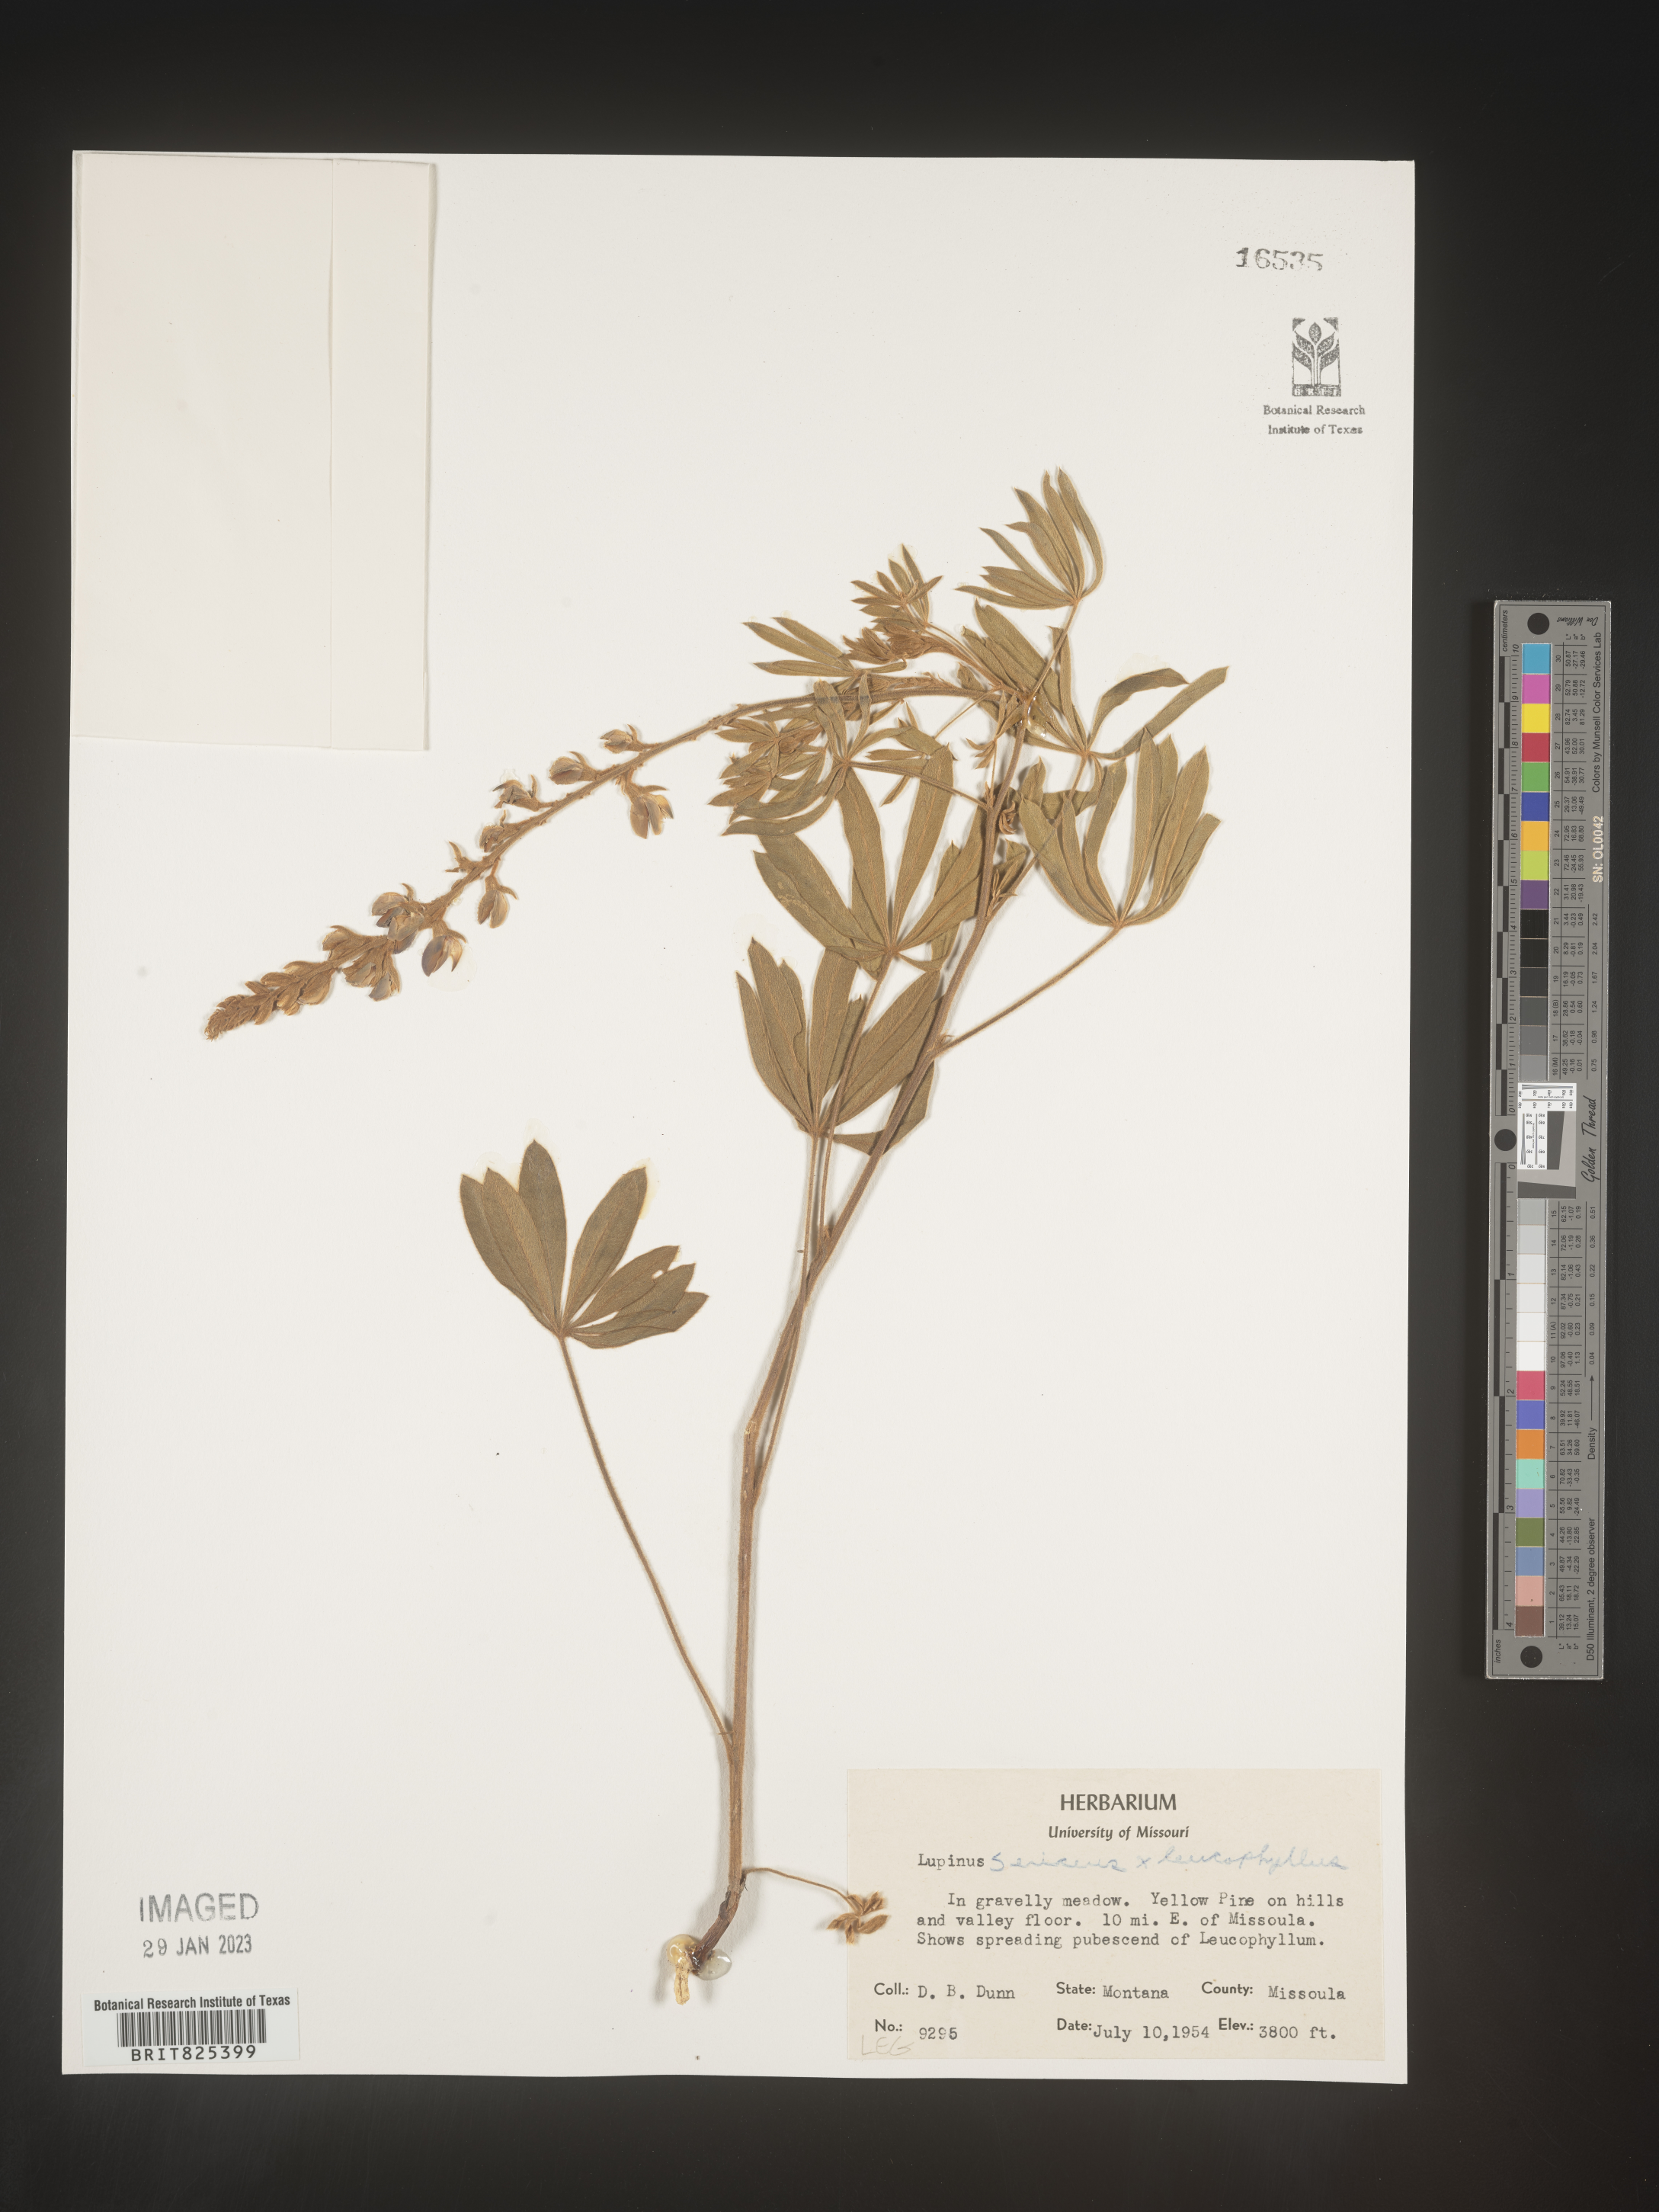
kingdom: Plantae
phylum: Tracheophyta
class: Magnoliopsida
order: Fabales
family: Fabaceae
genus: Lupinus
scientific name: Lupinus sericeus
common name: Silky lupine
